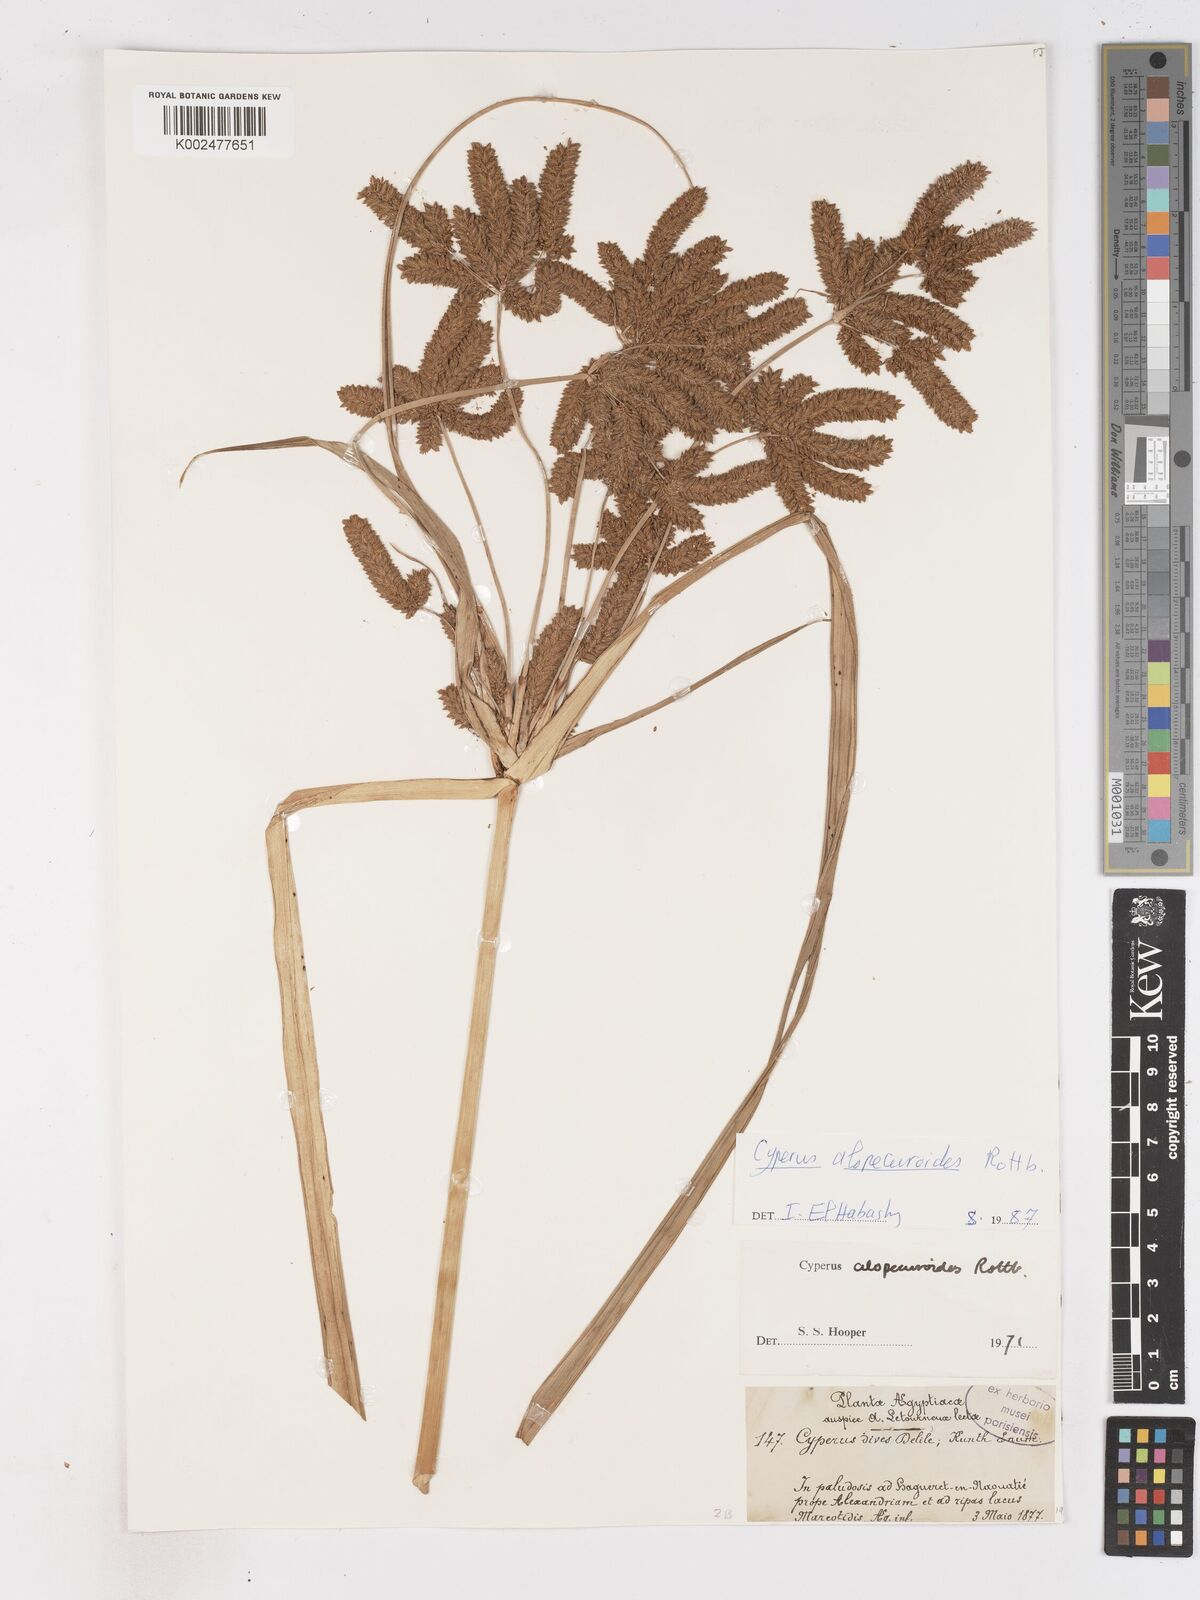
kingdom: Plantae
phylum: Tracheophyta
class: Liliopsida
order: Poales
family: Cyperaceae
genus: Cyperus
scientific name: Cyperus alopecuroides
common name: Foxtail flatsedge
